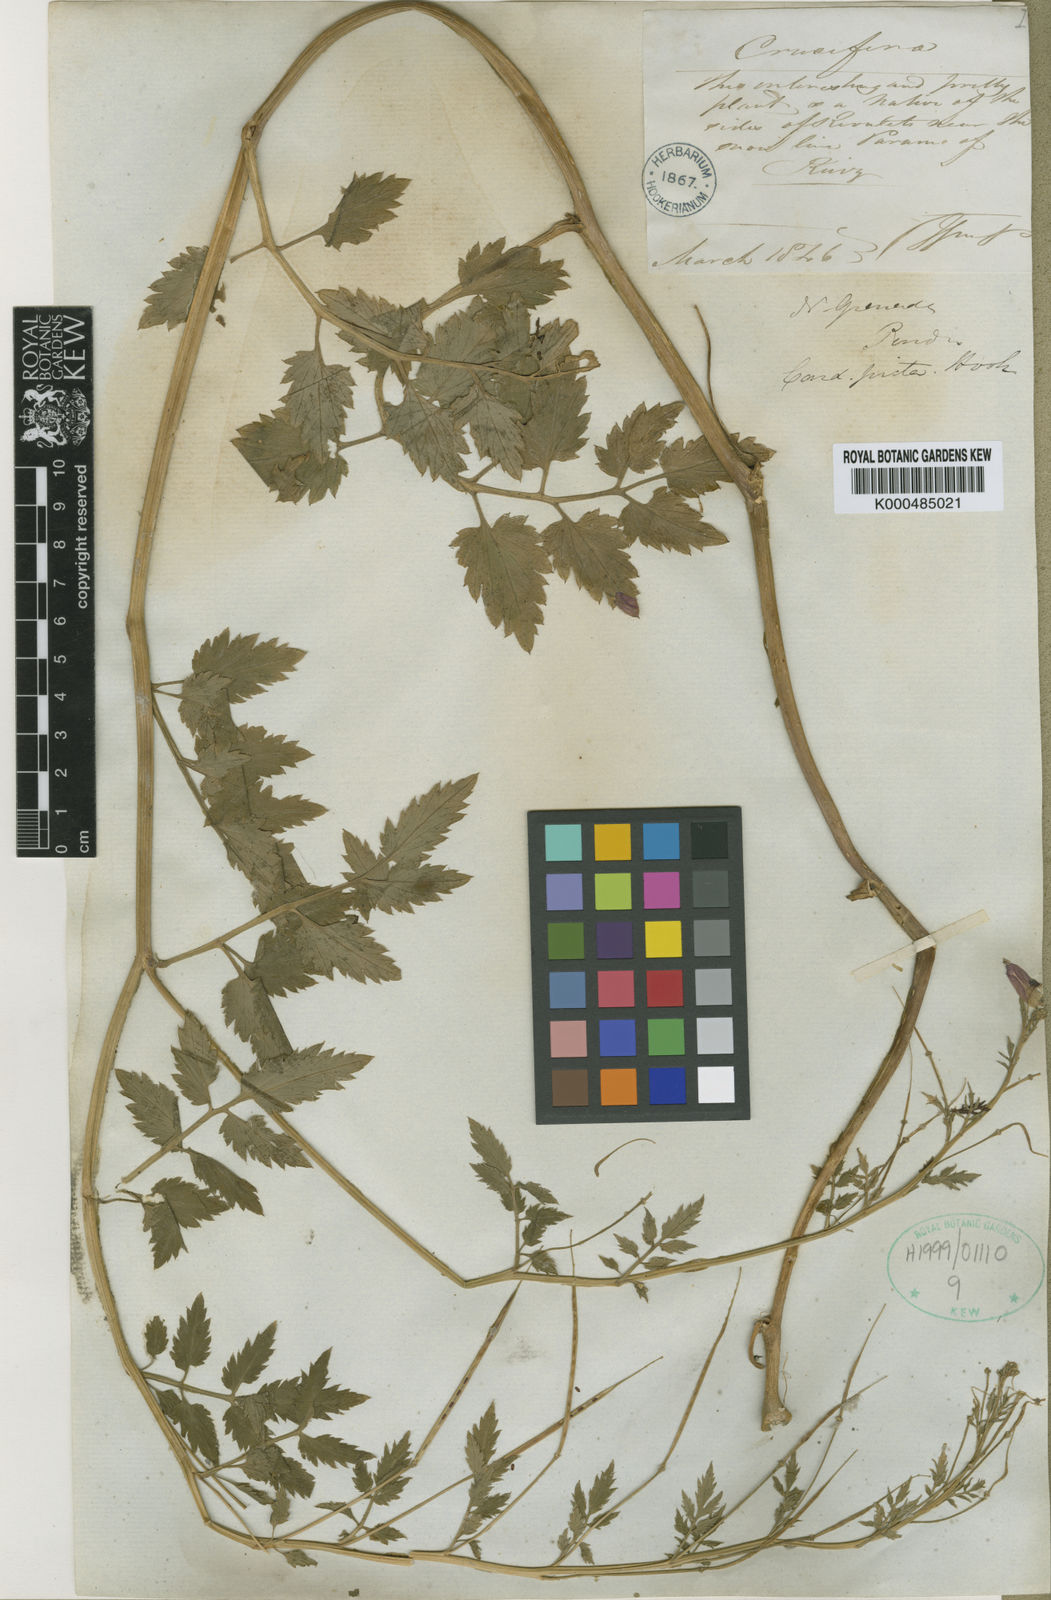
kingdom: Plantae
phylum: Tracheophyta
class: Magnoliopsida
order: Brassicales
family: Brassicaceae
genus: Cardamine
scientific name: Cardamine picta
